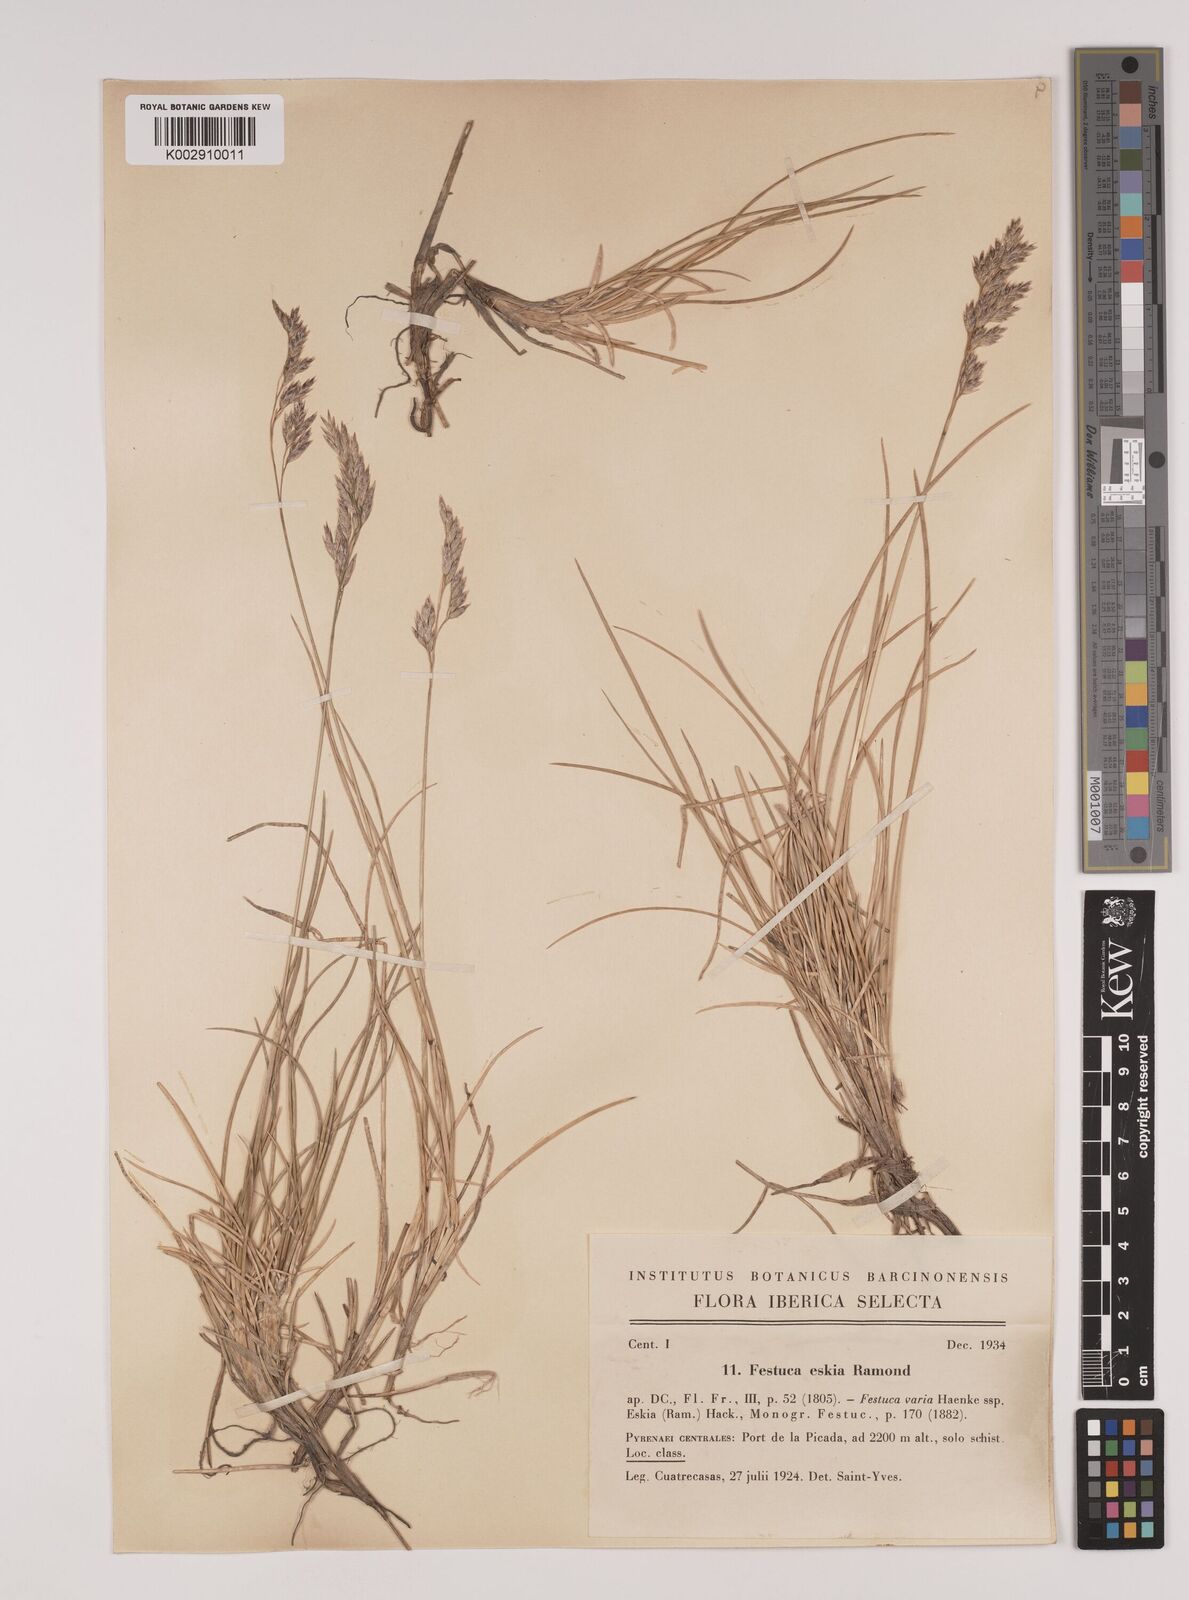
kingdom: Plantae
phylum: Tracheophyta
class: Liliopsida
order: Poales
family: Poaceae
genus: Festuca
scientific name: Festuca eskia
